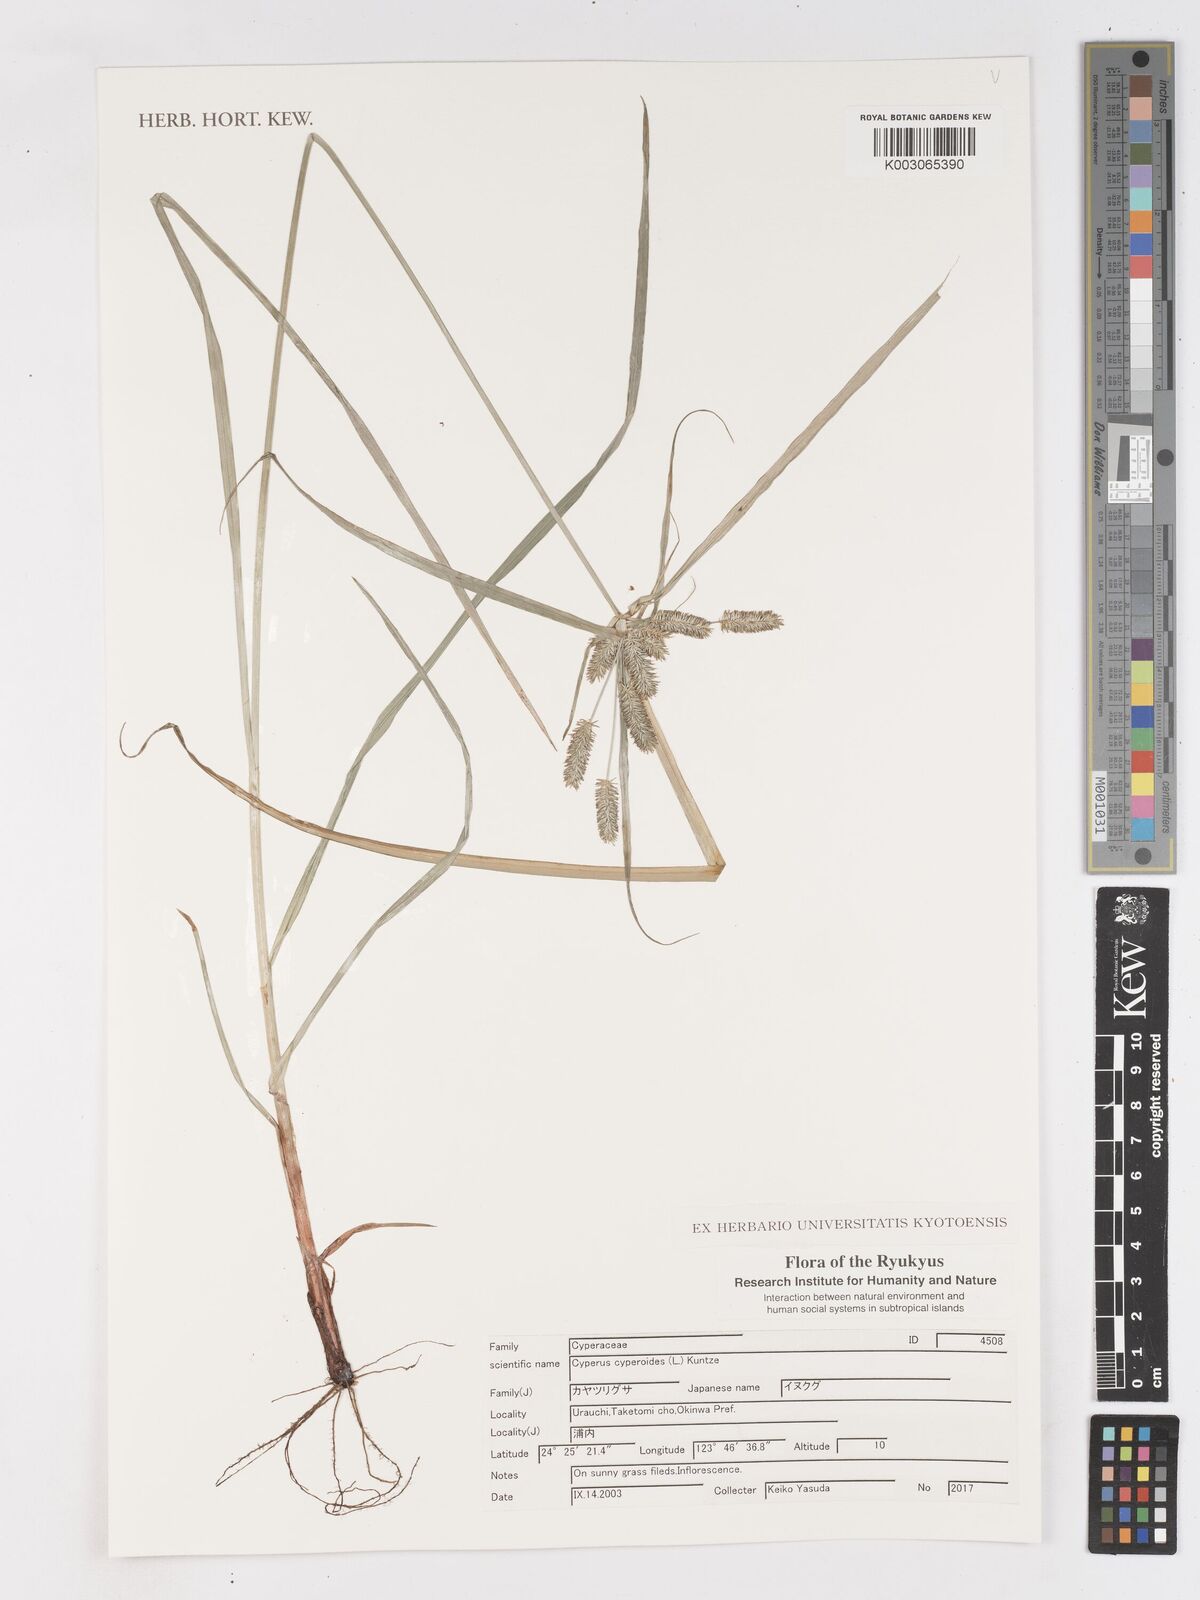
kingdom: Plantae
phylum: Tracheophyta
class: Liliopsida
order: Poales
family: Cyperaceae
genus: Cyperus
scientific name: Cyperus cyperoides
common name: Pacific island flat sedge
